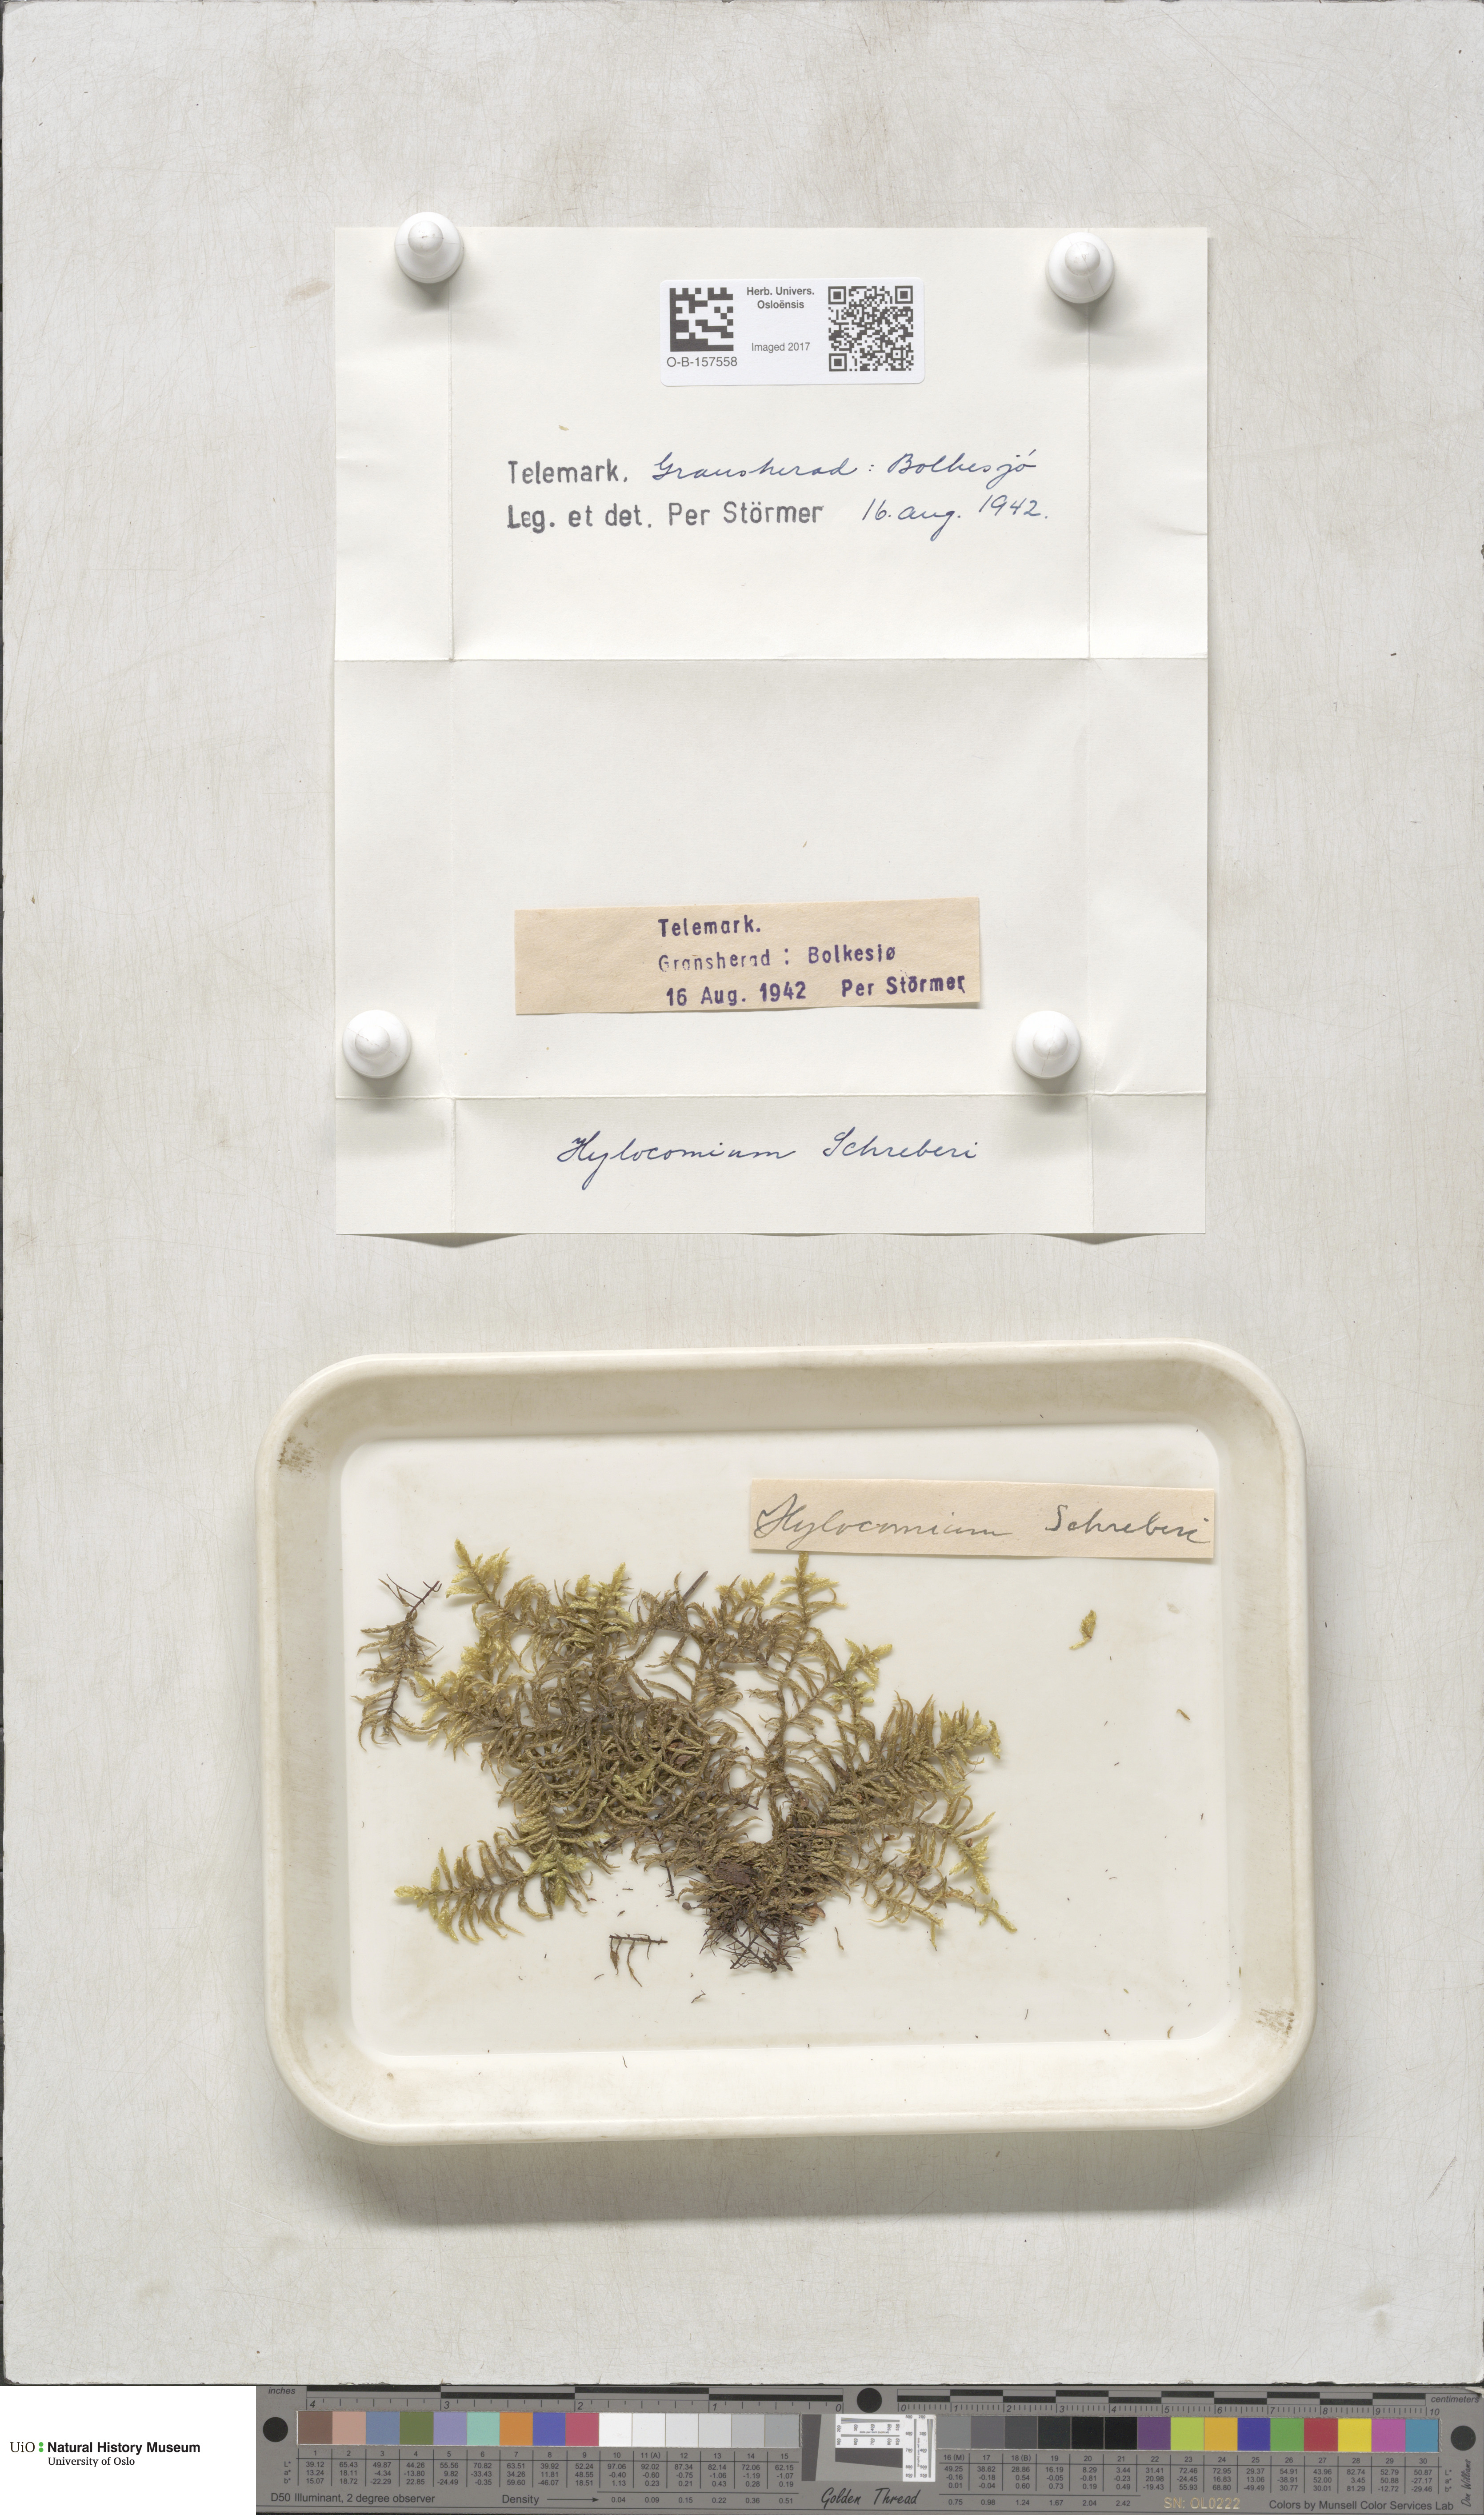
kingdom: Plantae
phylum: Bryophyta
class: Bryopsida
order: Hypnales
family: Hylocomiaceae
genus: Pleurozium
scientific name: Pleurozium schreberi
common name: Red-stemmed feather moss
